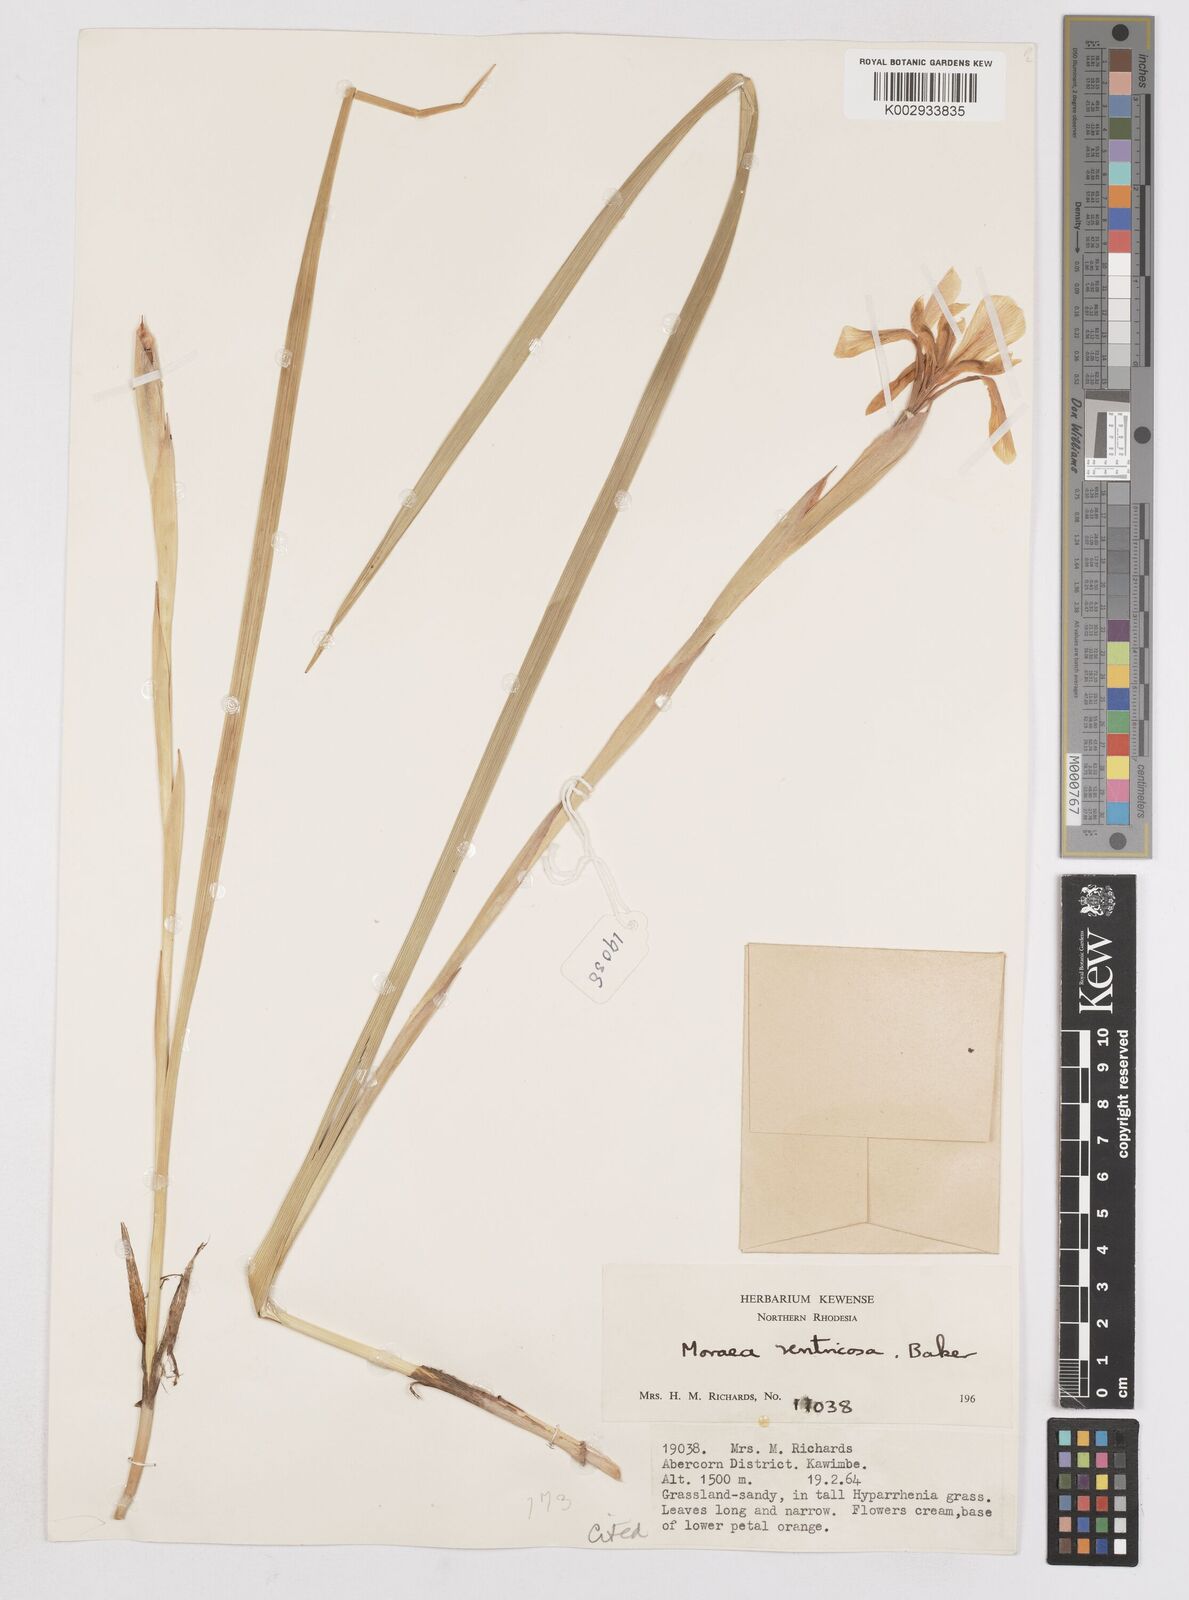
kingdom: Plantae
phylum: Tracheophyta
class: Liliopsida
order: Asparagales
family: Iridaceae
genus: Moraea
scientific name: Moraea ventricosa
